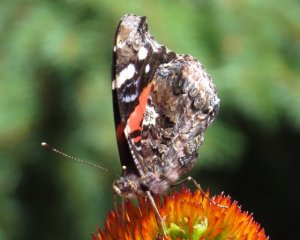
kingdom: Animalia
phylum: Arthropoda
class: Insecta
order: Lepidoptera
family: Nymphalidae
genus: Vanessa
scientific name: Vanessa atalanta
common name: Red Admiral
